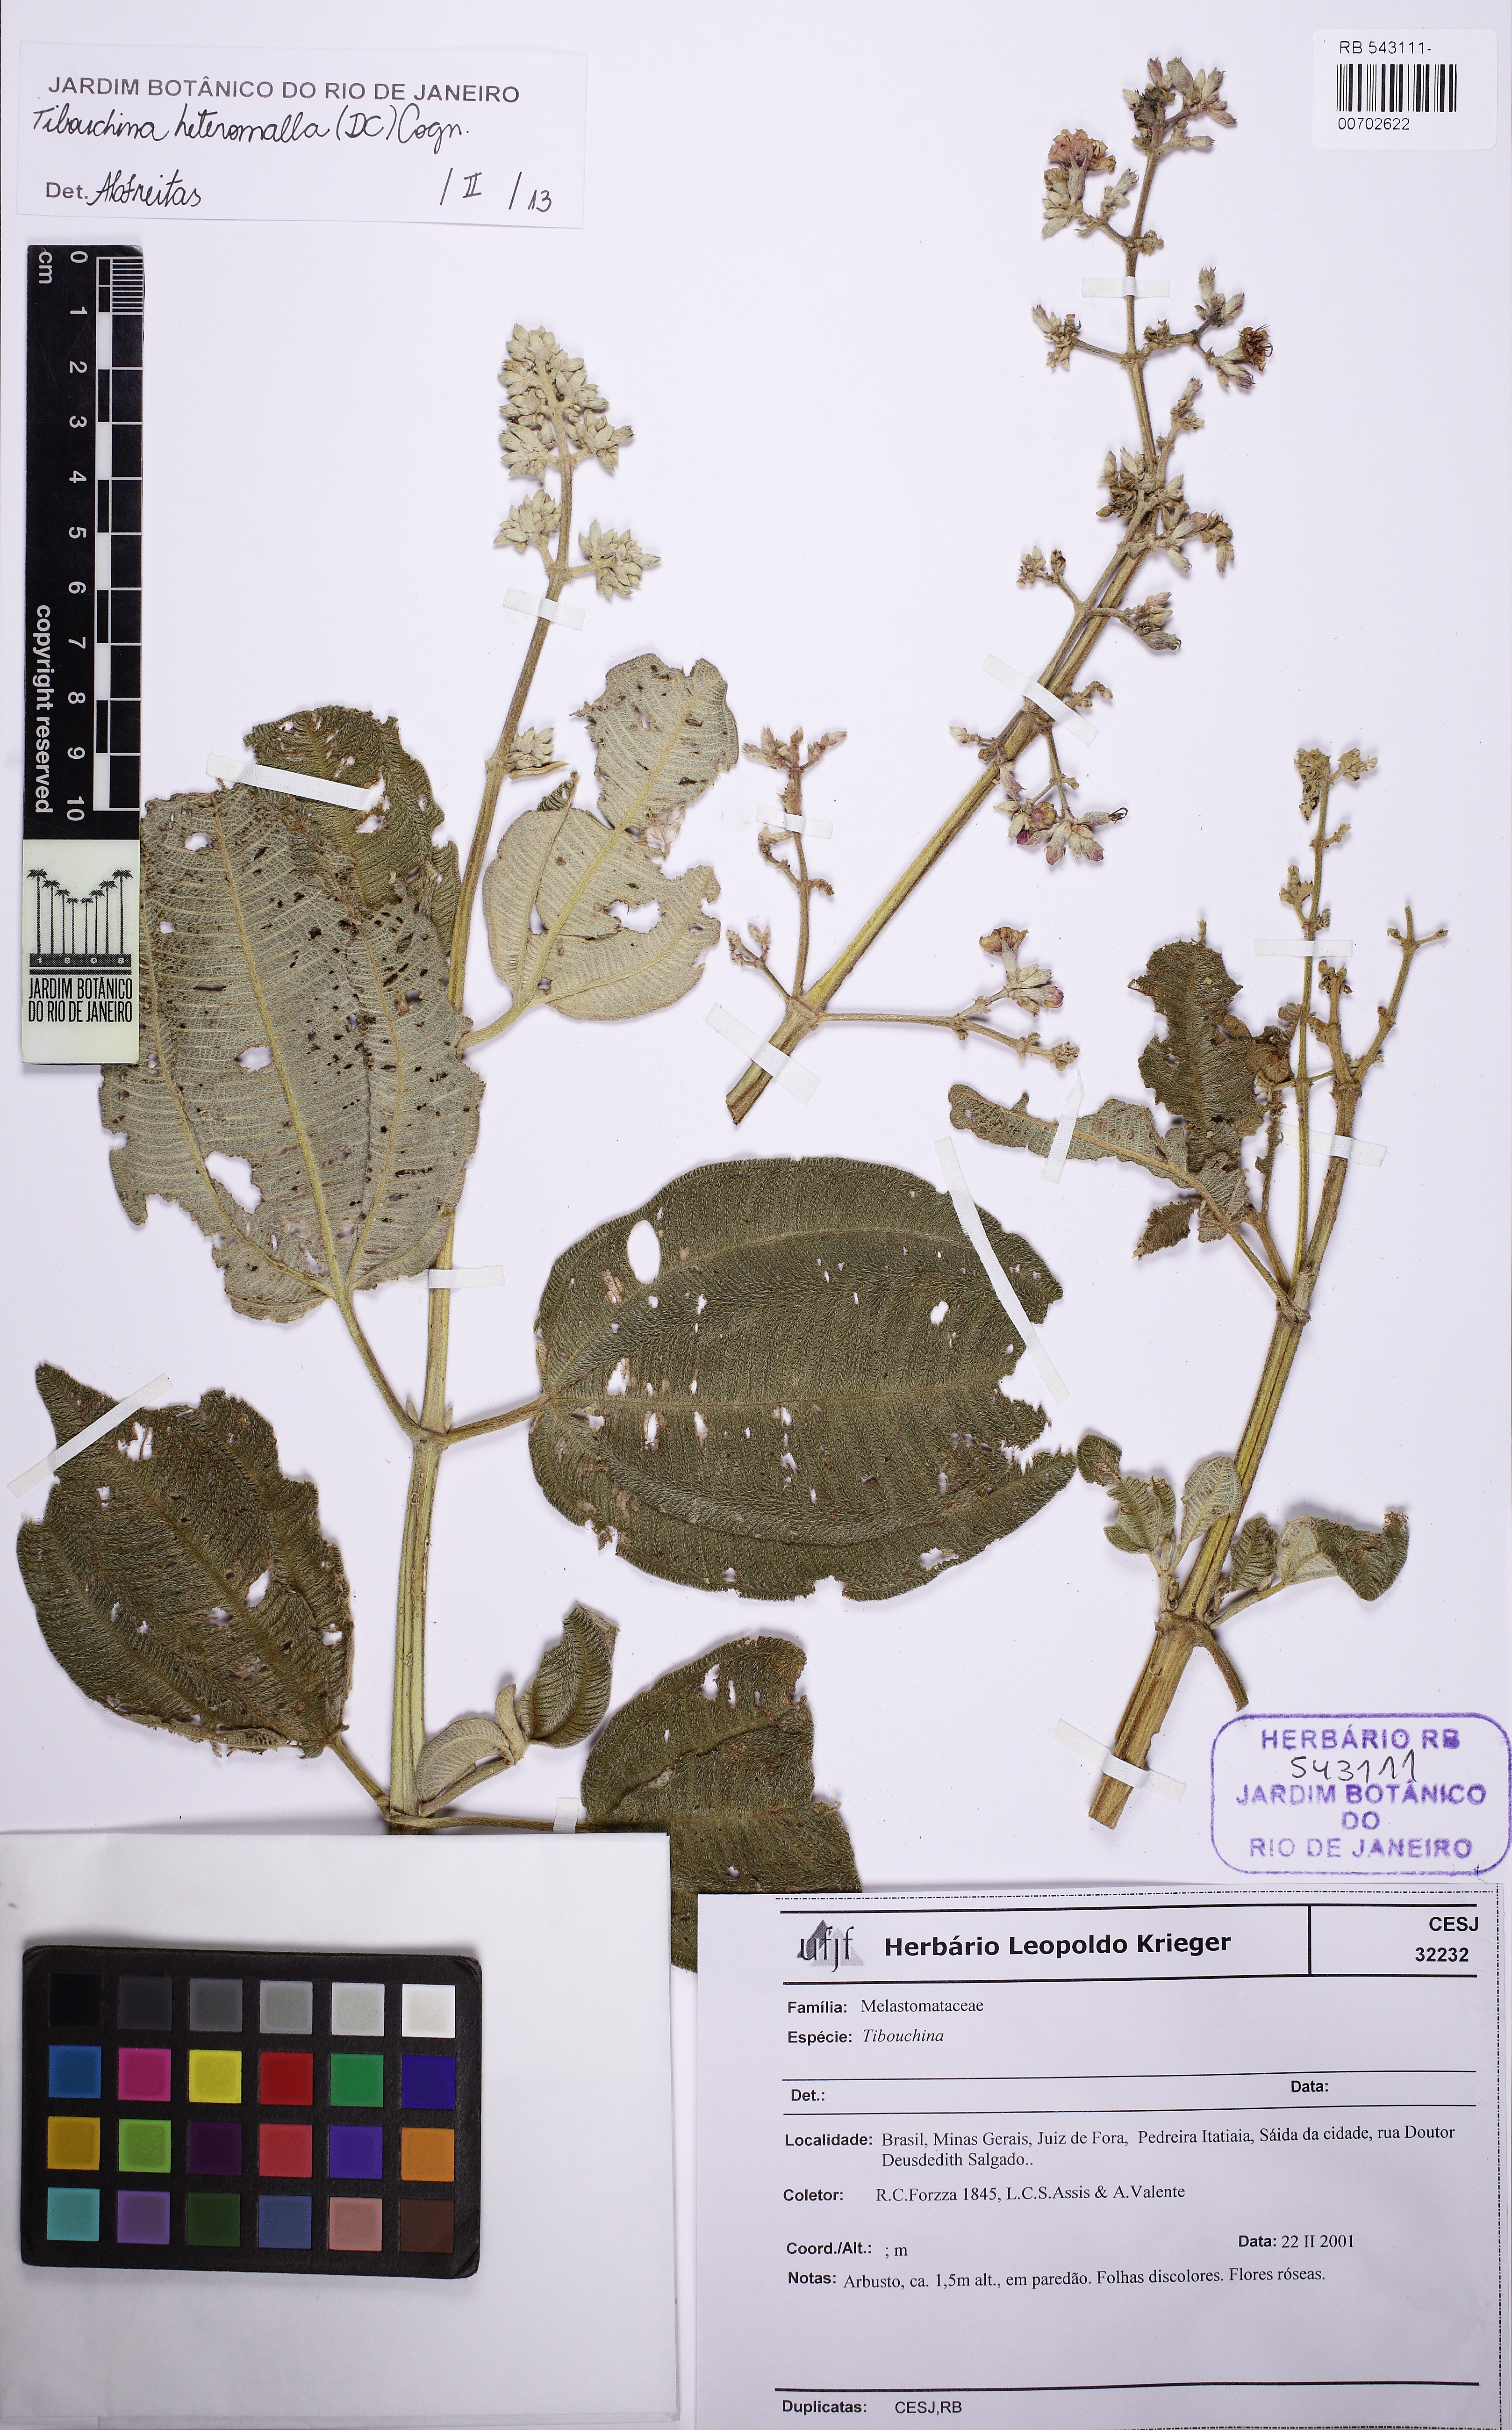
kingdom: Plantae
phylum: Tracheophyta
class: Magnoliopsida
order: Myrtales
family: Melastomataceae
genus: Pleroma
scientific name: Pleroma heteromallum
